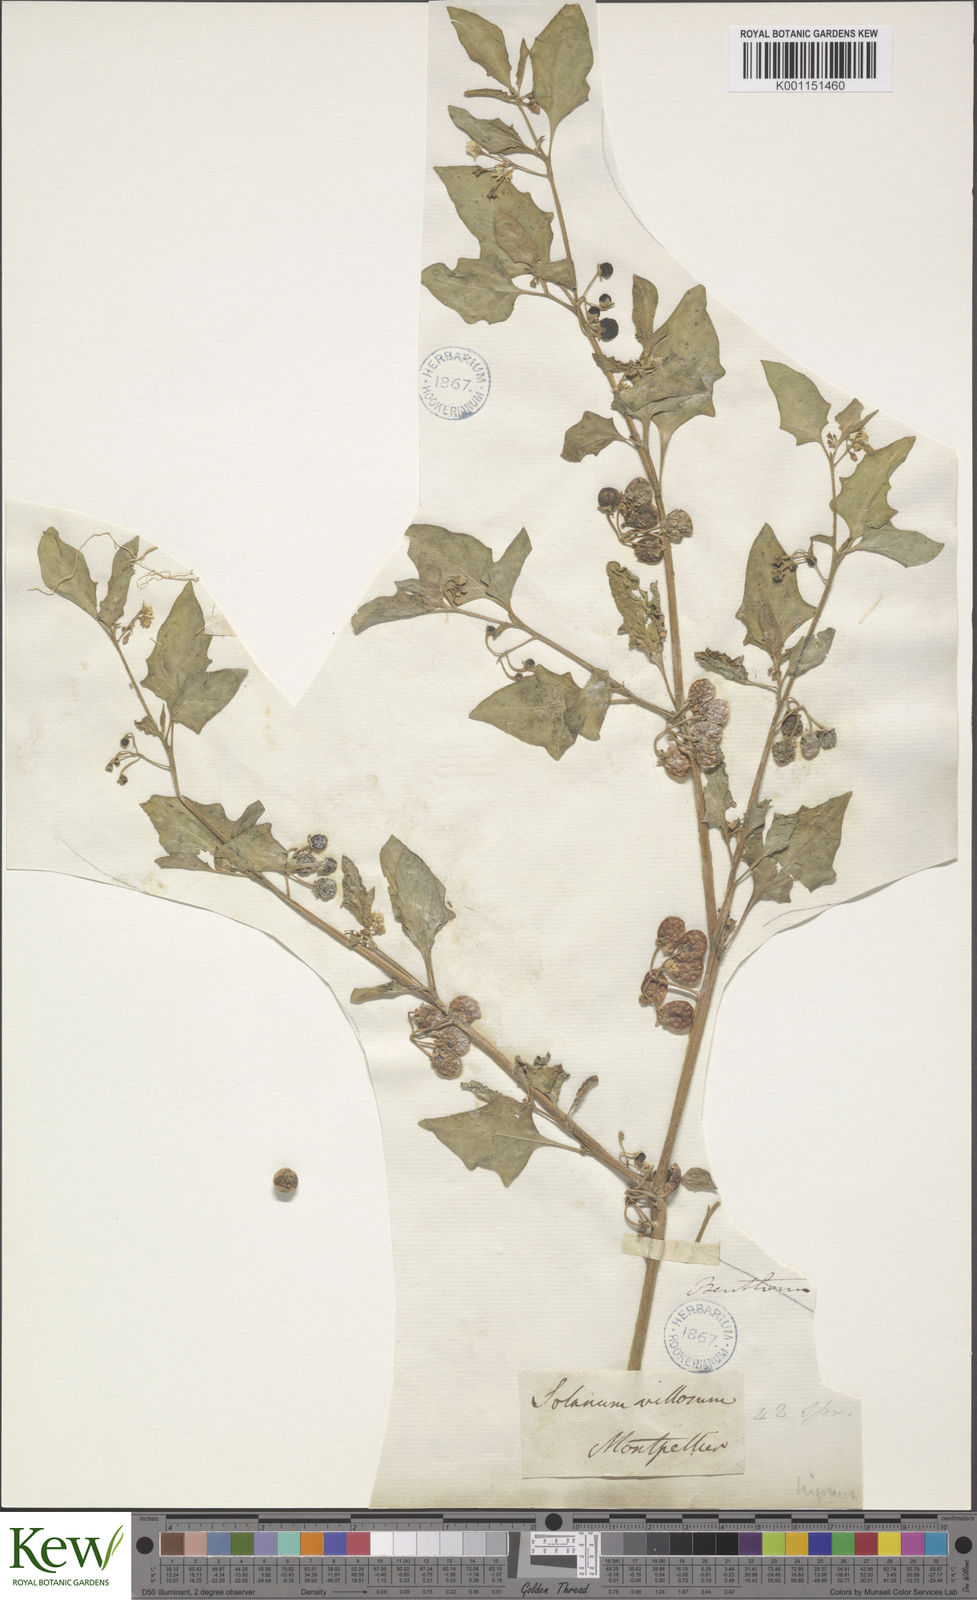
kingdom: Plantae
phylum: Tracheophyta
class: Magnoliopsida
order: Solanales
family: Solanaceae
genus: Solanum
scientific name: Solanum villosum
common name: Red nightshade
